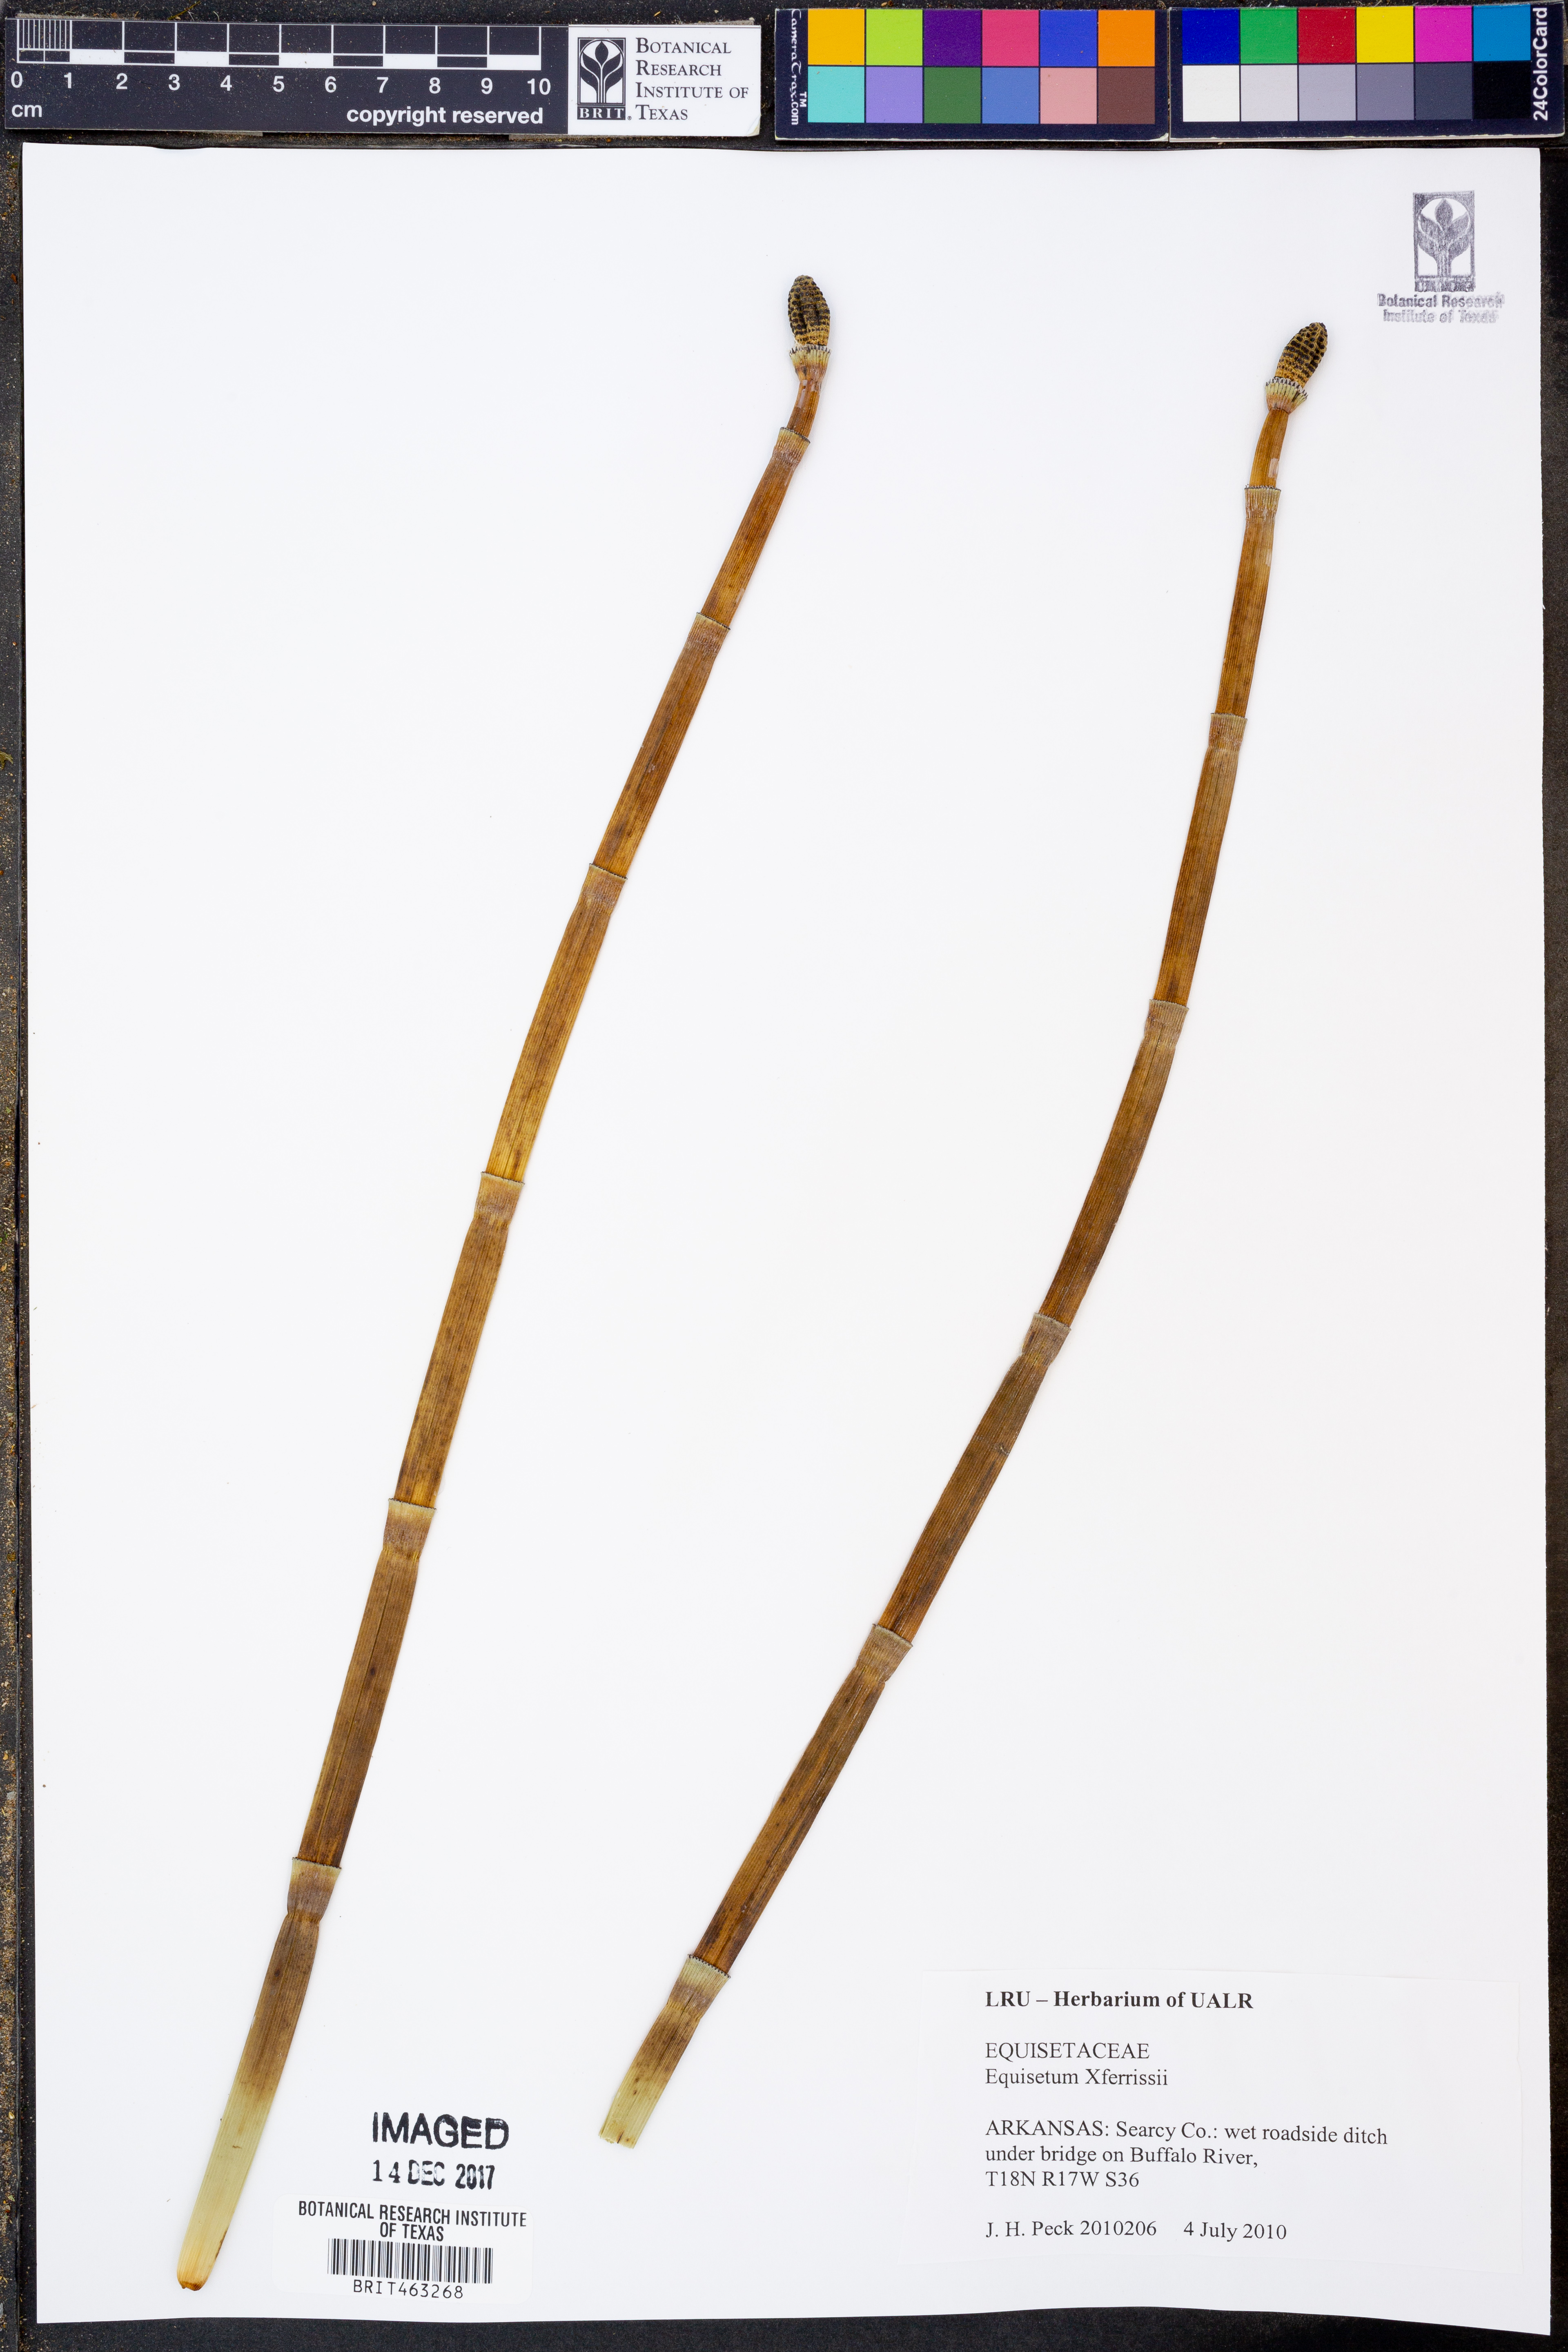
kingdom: Plantae
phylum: Tracheophyta
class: Polypodiopsida
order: Equisetales
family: Equisetaceae
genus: Equisetum
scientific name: Equisetum ferrissii
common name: Ferriss' horsetail
